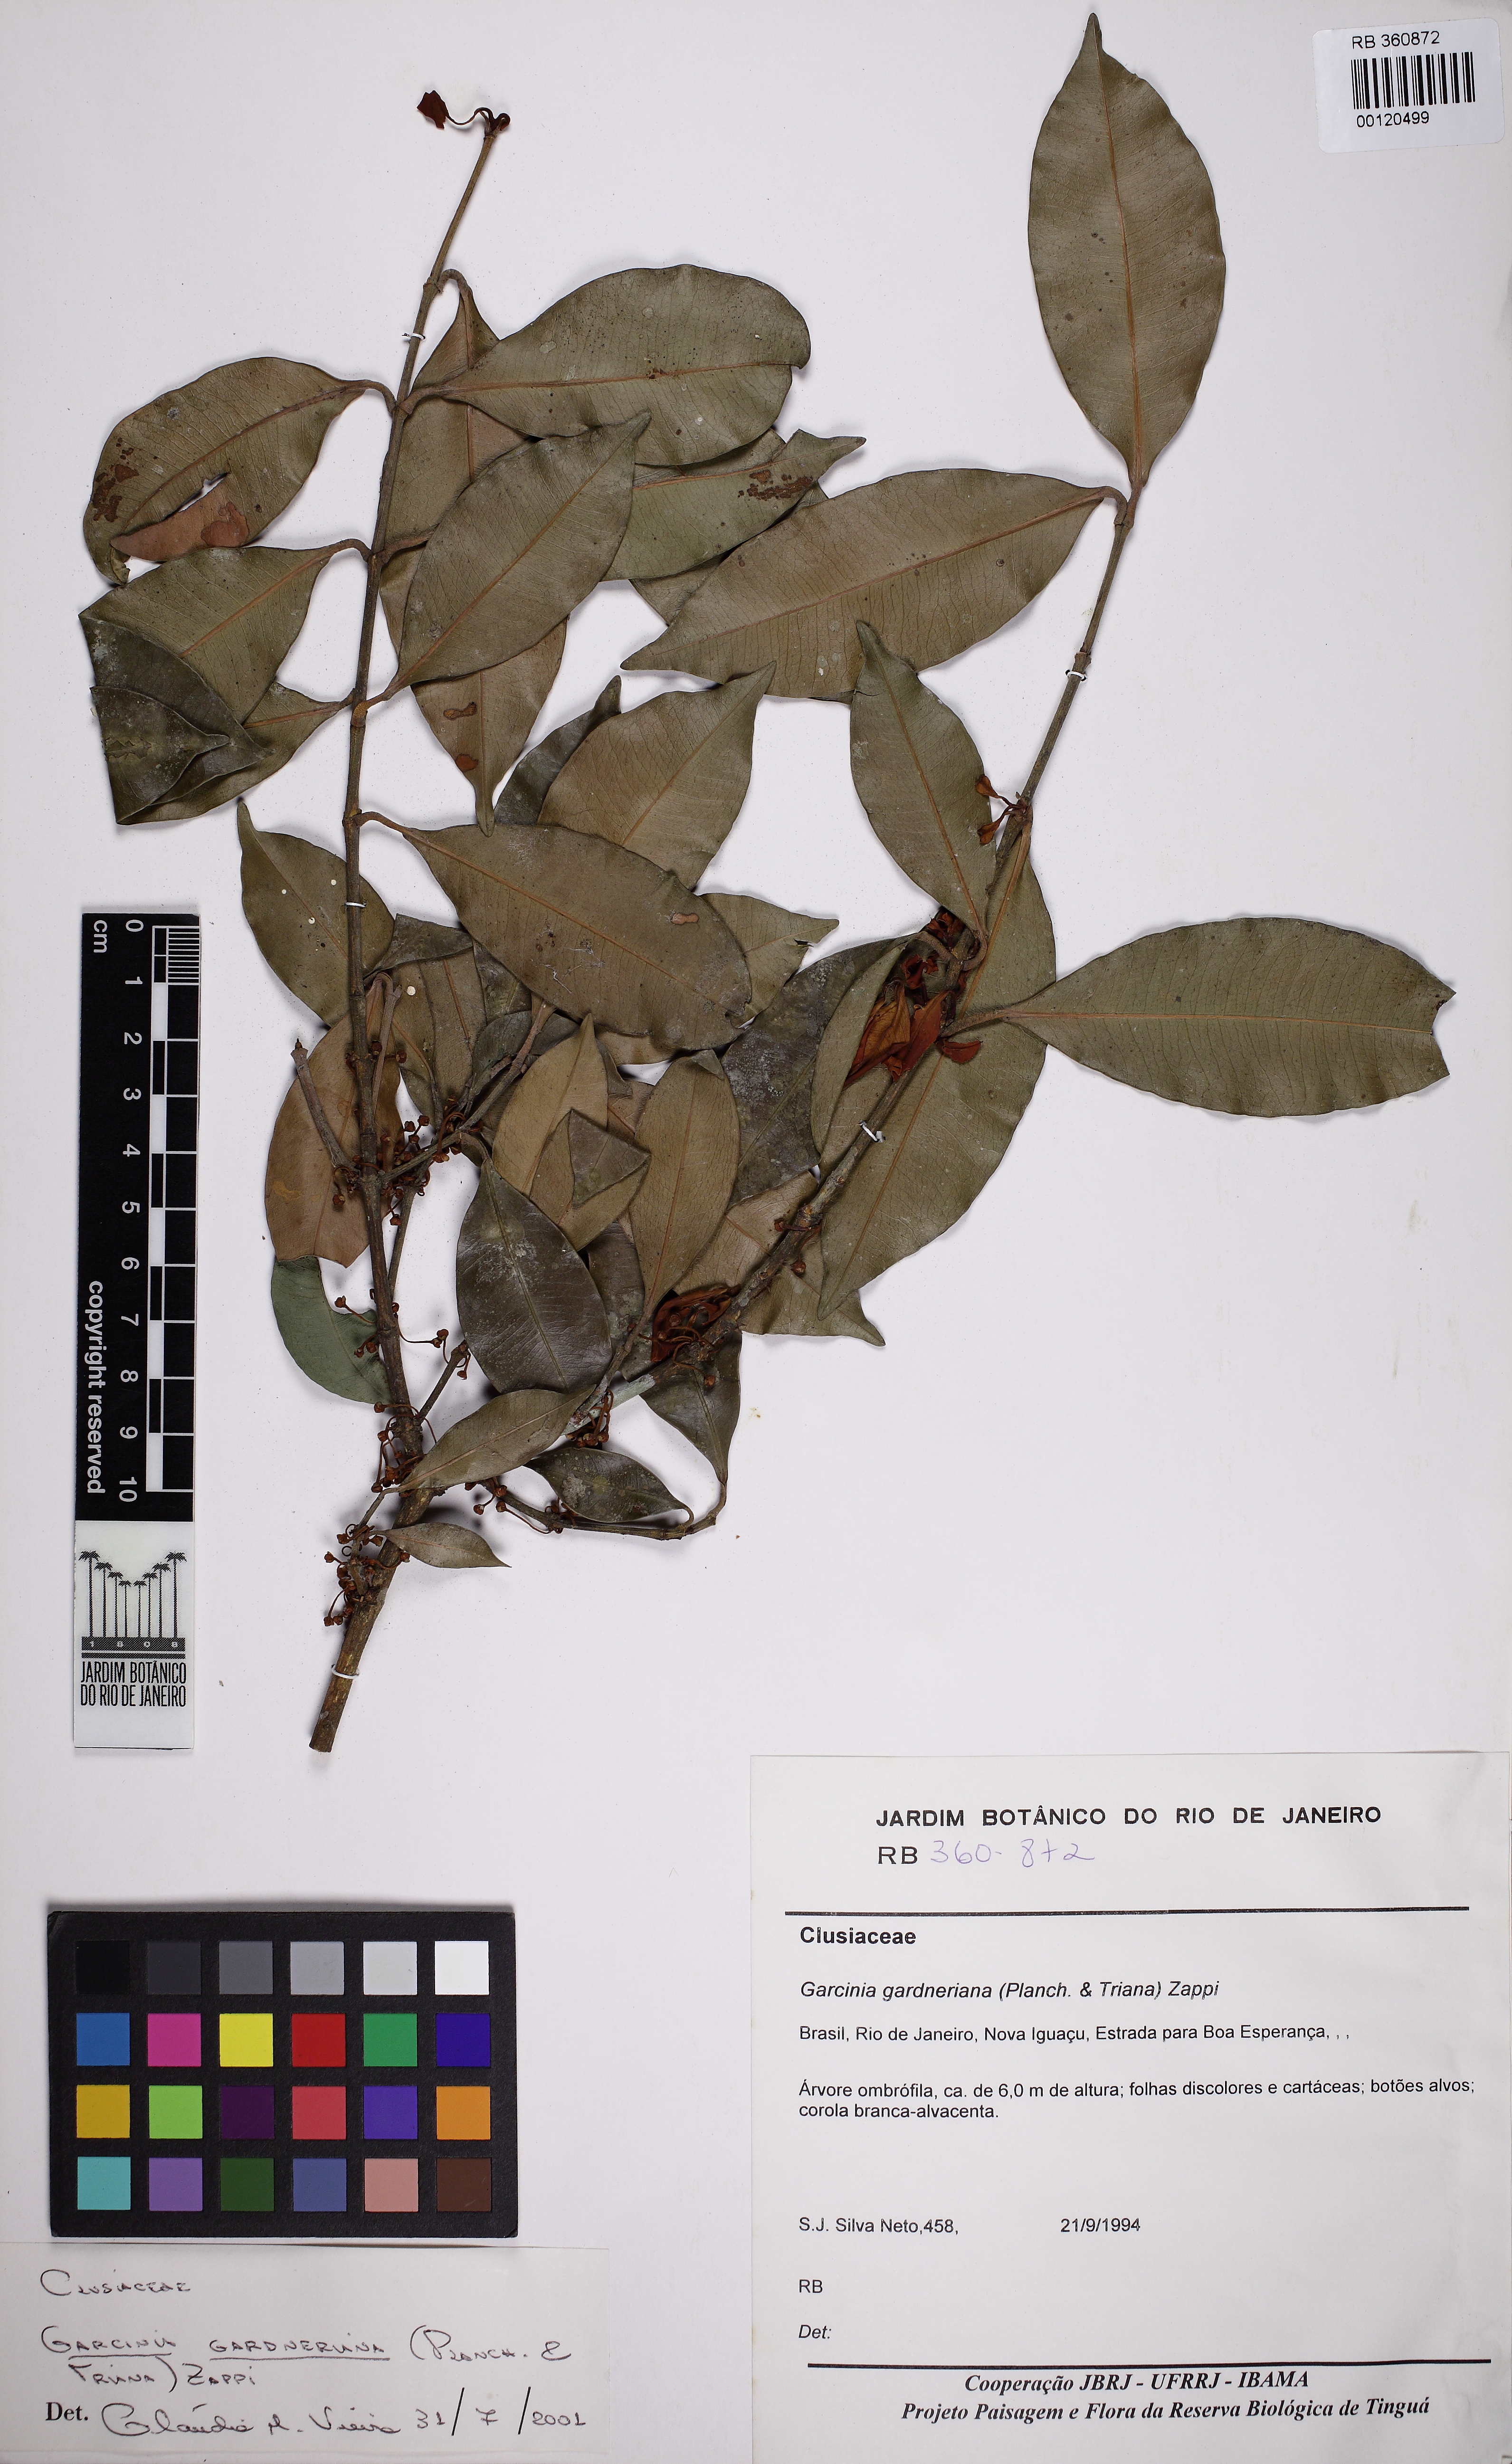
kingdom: Plantae
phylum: Tracheophyta
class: Magnoliopsida
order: Malpighiales
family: Clusiaceae
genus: Garcinia
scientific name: Garcinia gardneriana
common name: Achacha
